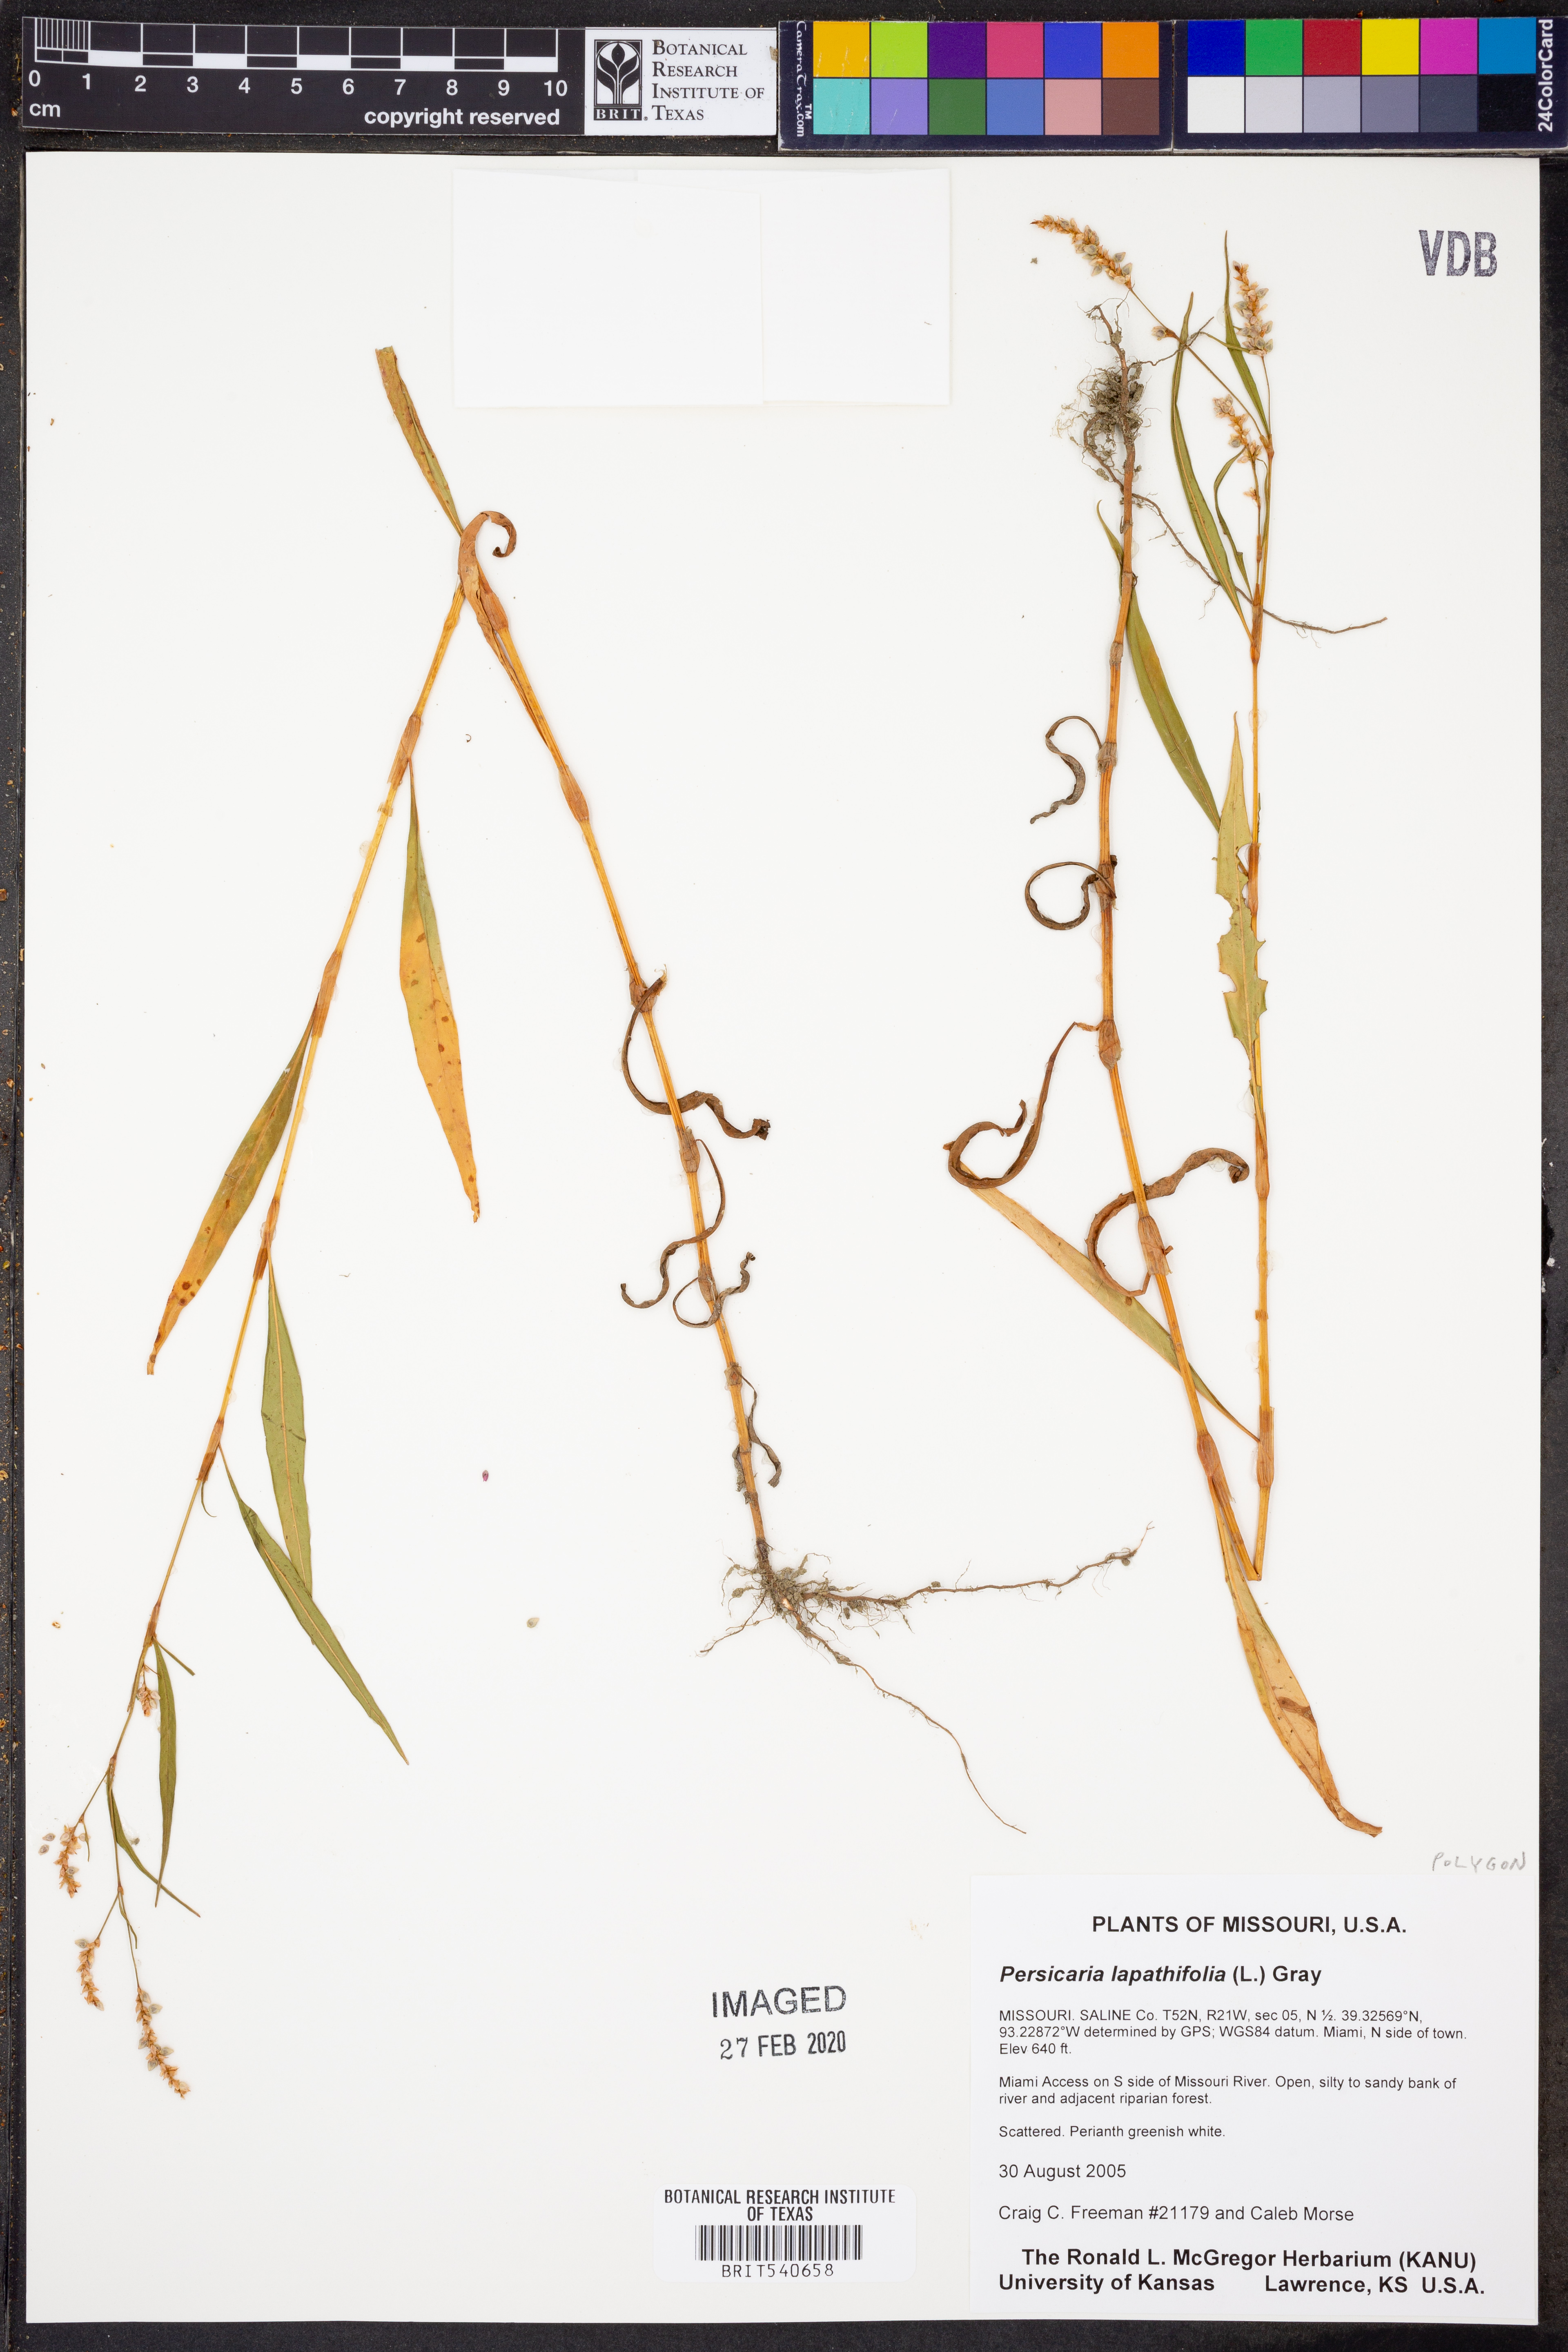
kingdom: Plantae
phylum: Tracheophyta
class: Magnoliopsida
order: Caryophyllales
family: Polygonaceae
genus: Persicaria
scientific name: Persicaria lapathifolia
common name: Curlytop knotweed
